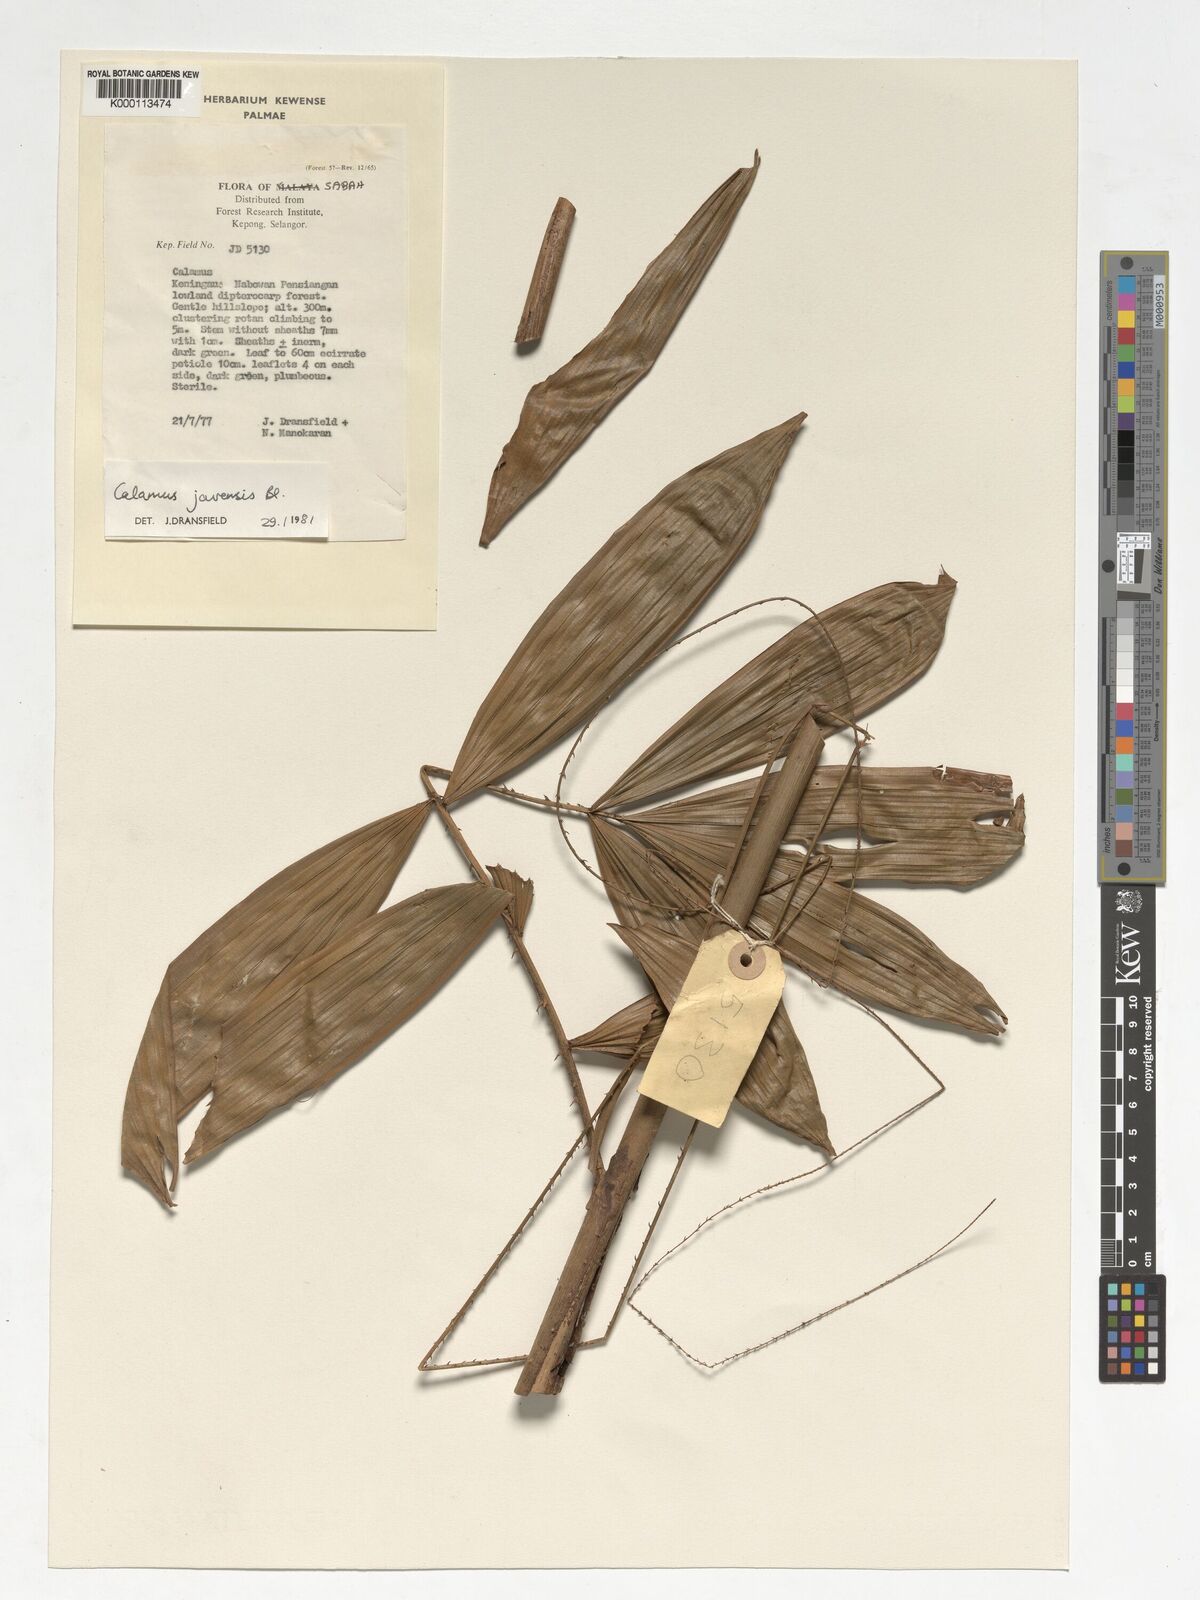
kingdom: Plantae
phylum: Tracheophyta
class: Liliopsida
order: Arecales
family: Arecaceae
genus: Calamus
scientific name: Calamus javensis
